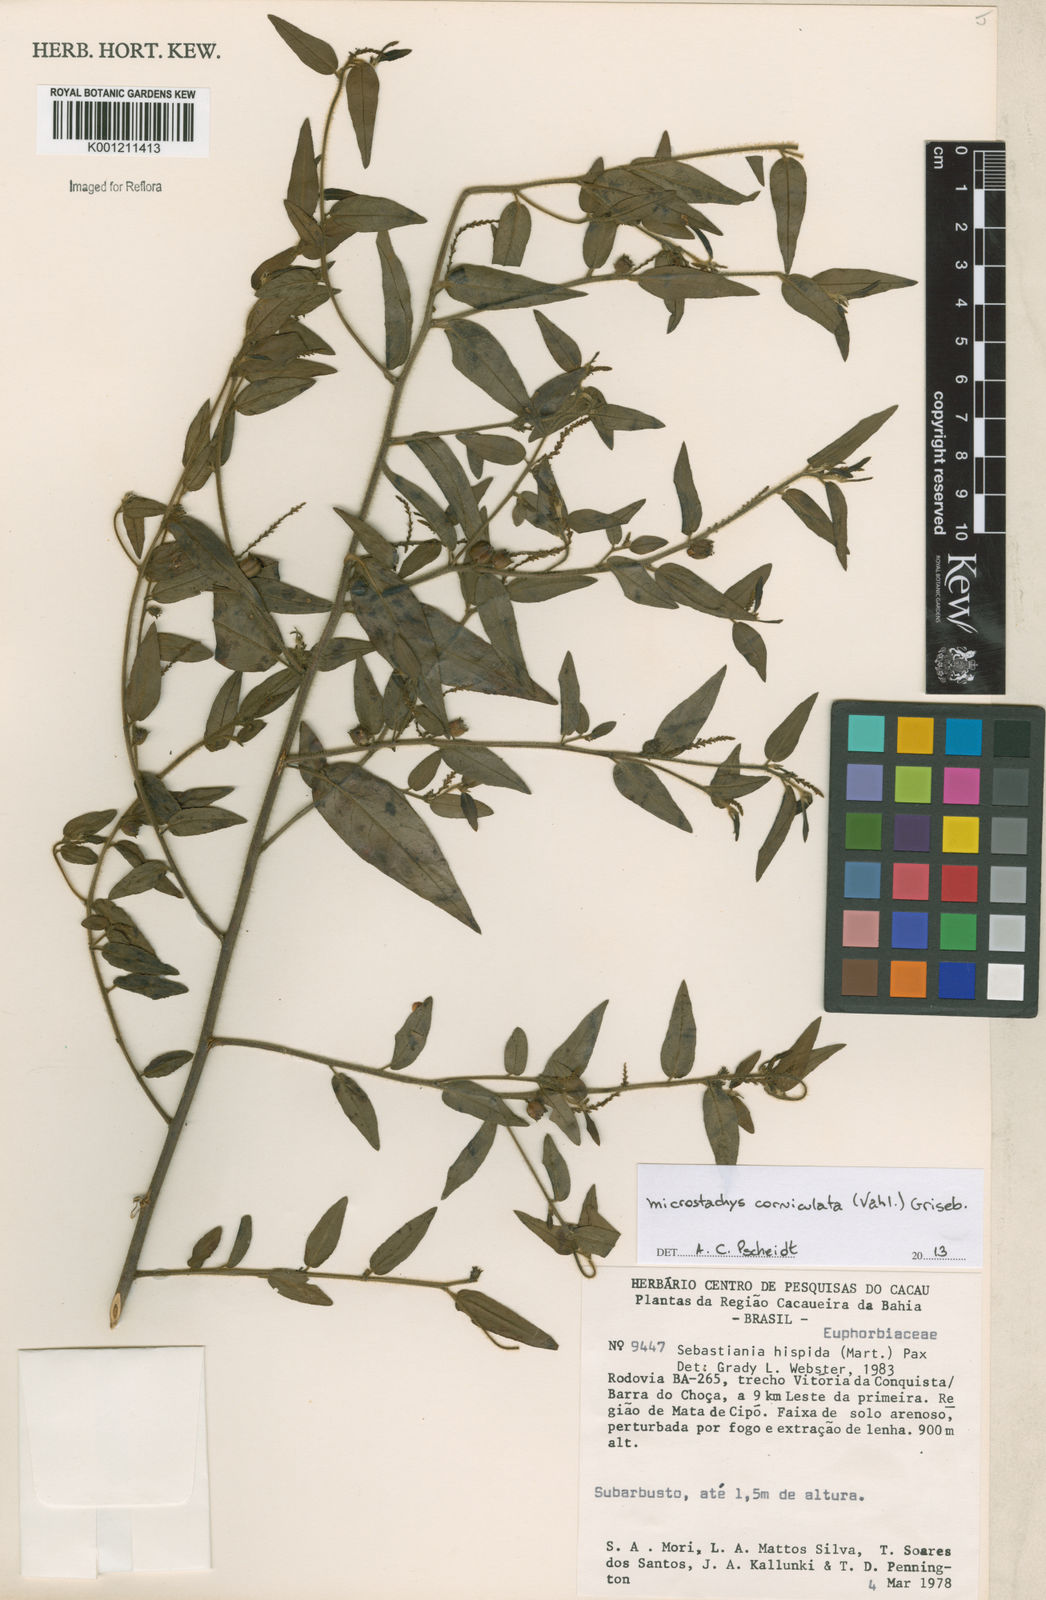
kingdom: Plantae
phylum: Tracheophyta
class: Magnoliopsida
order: Malpighiales
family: Euphorbiaceae
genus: Microstachys
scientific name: Microstachys corniculata
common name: Hato tejas
